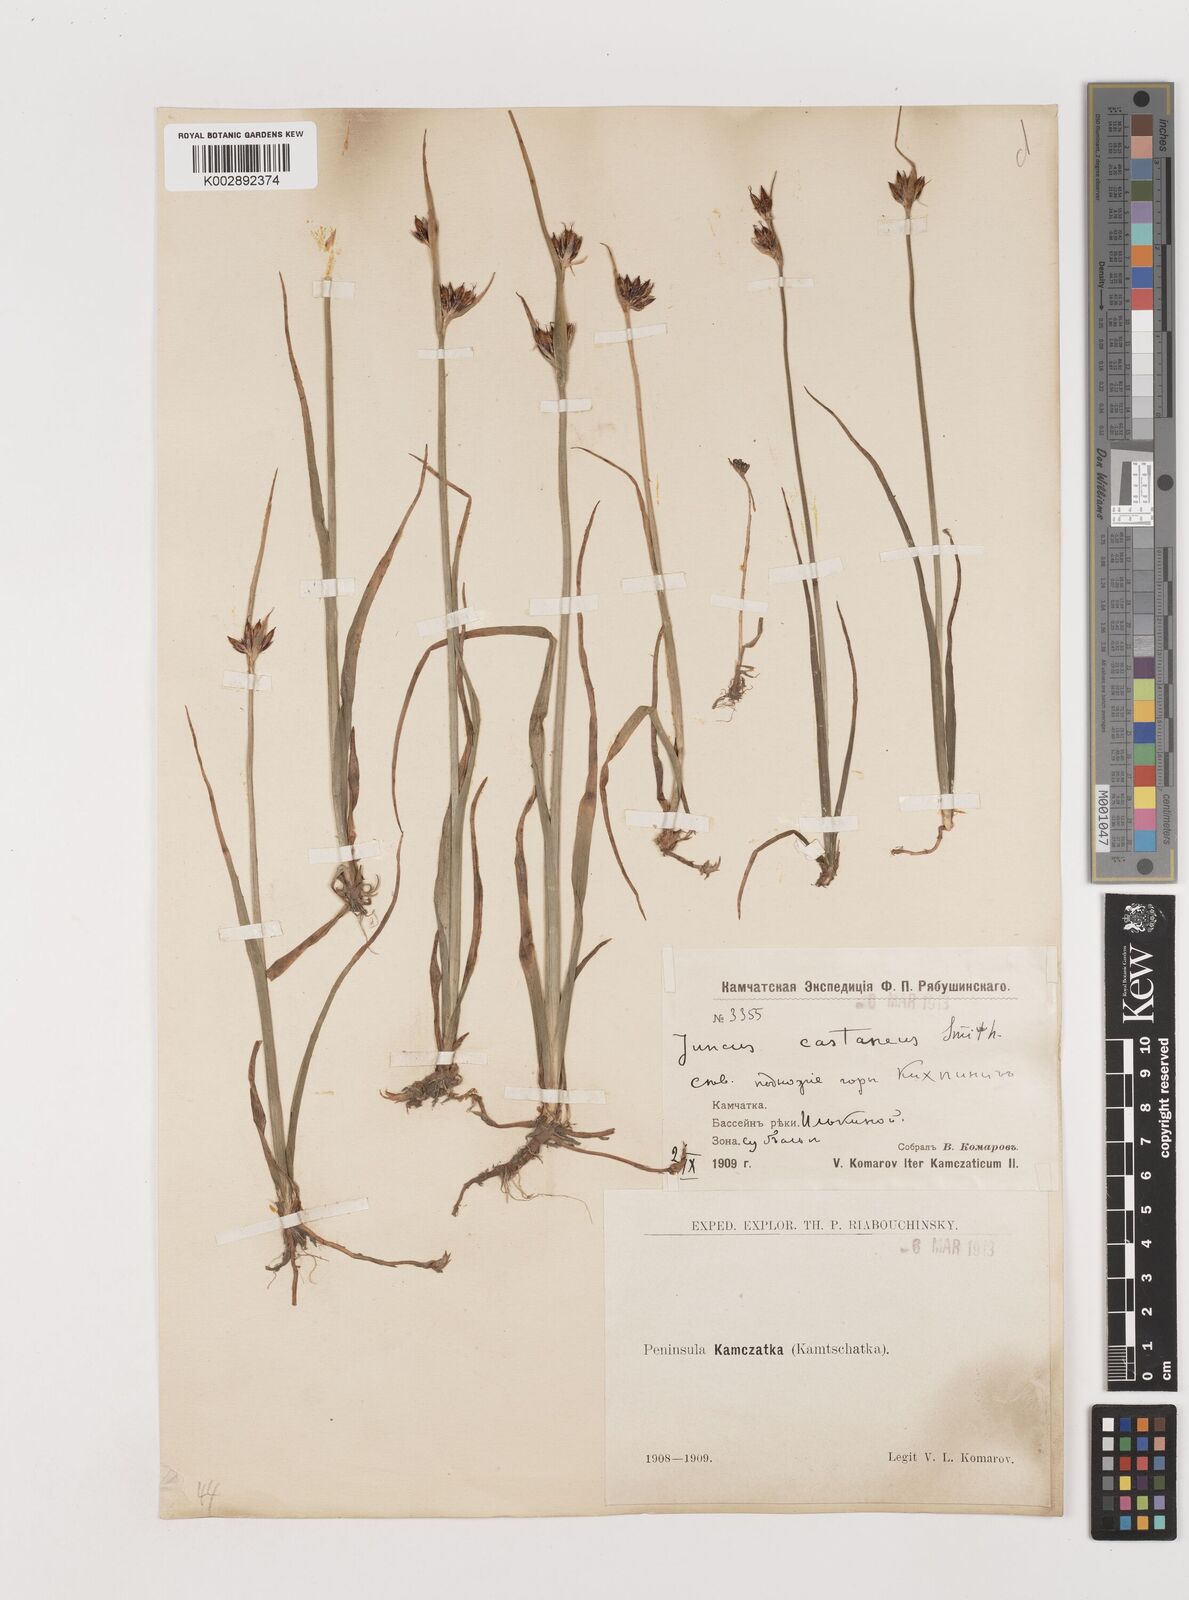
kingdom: Plantae
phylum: Tracheophyta
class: Liliopsida
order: Poales
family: Juncaceae
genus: Juncus
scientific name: Juncus castaneus
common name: Chestnut rush
